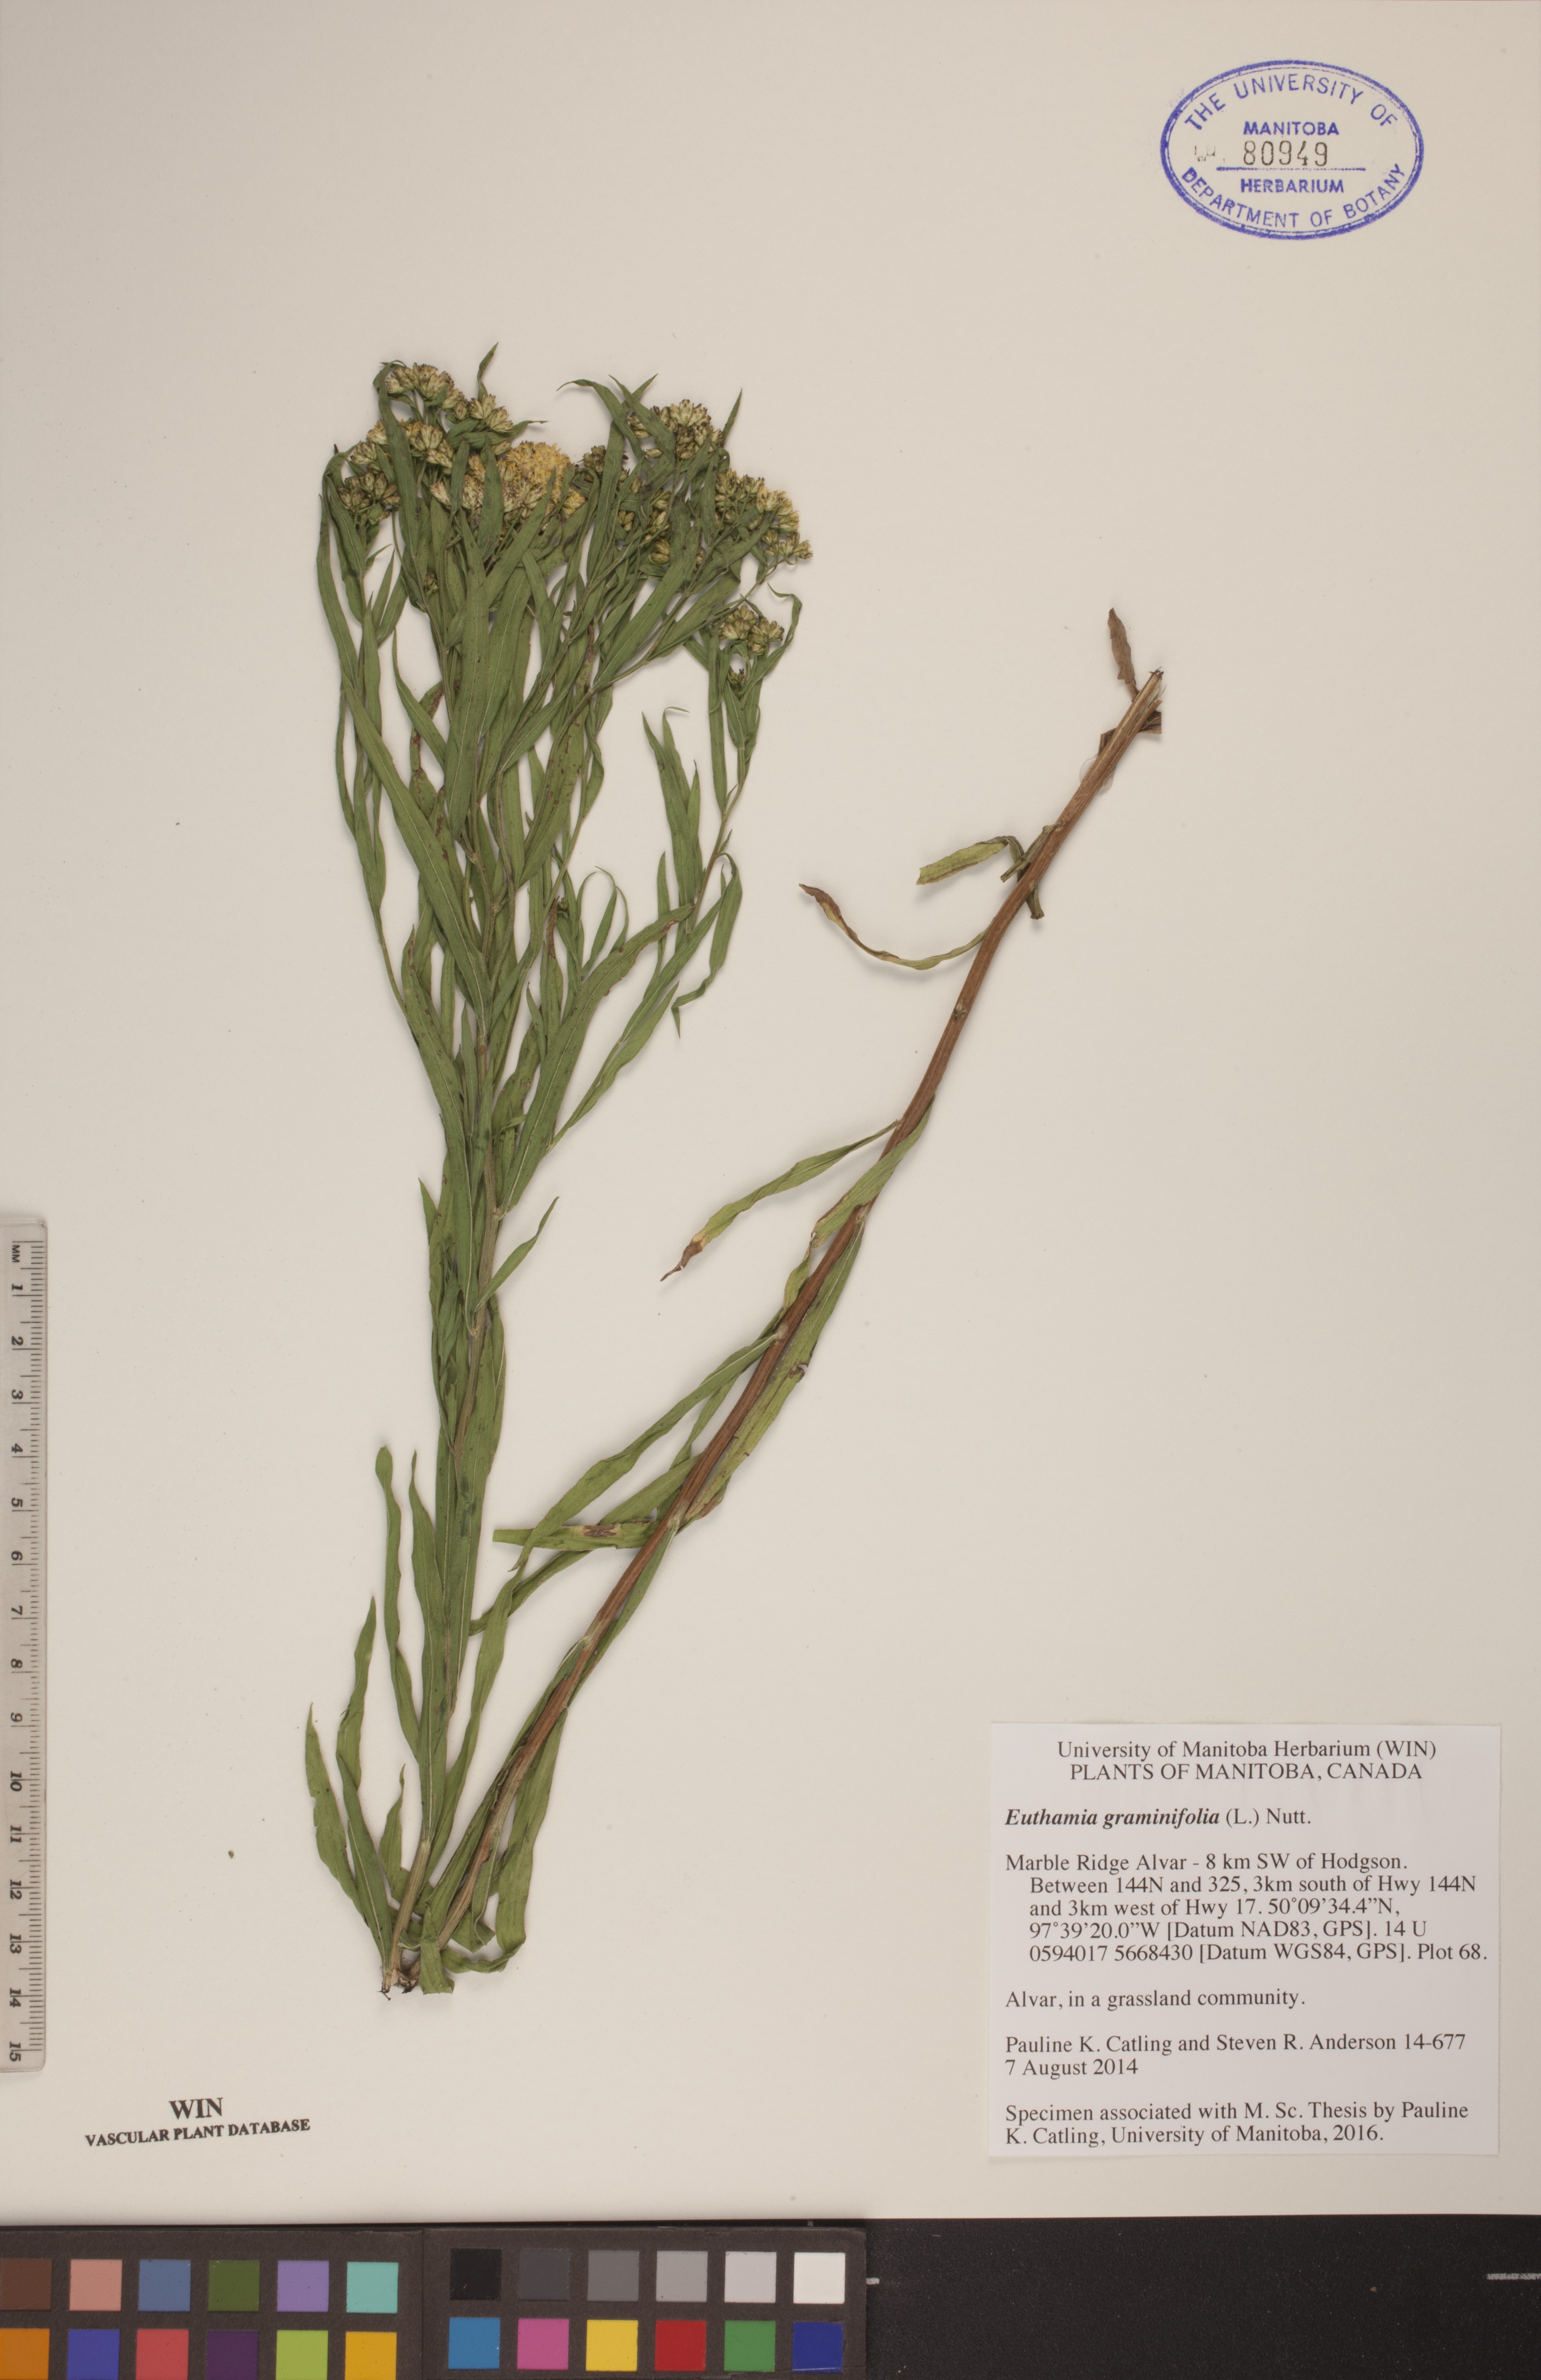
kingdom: Plantae
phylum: Tracheophyta
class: Magnoliopsida
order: Asterales
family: Asteraceae
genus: Euthamia
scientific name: Euthamia graminifolia
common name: Common goldentop
